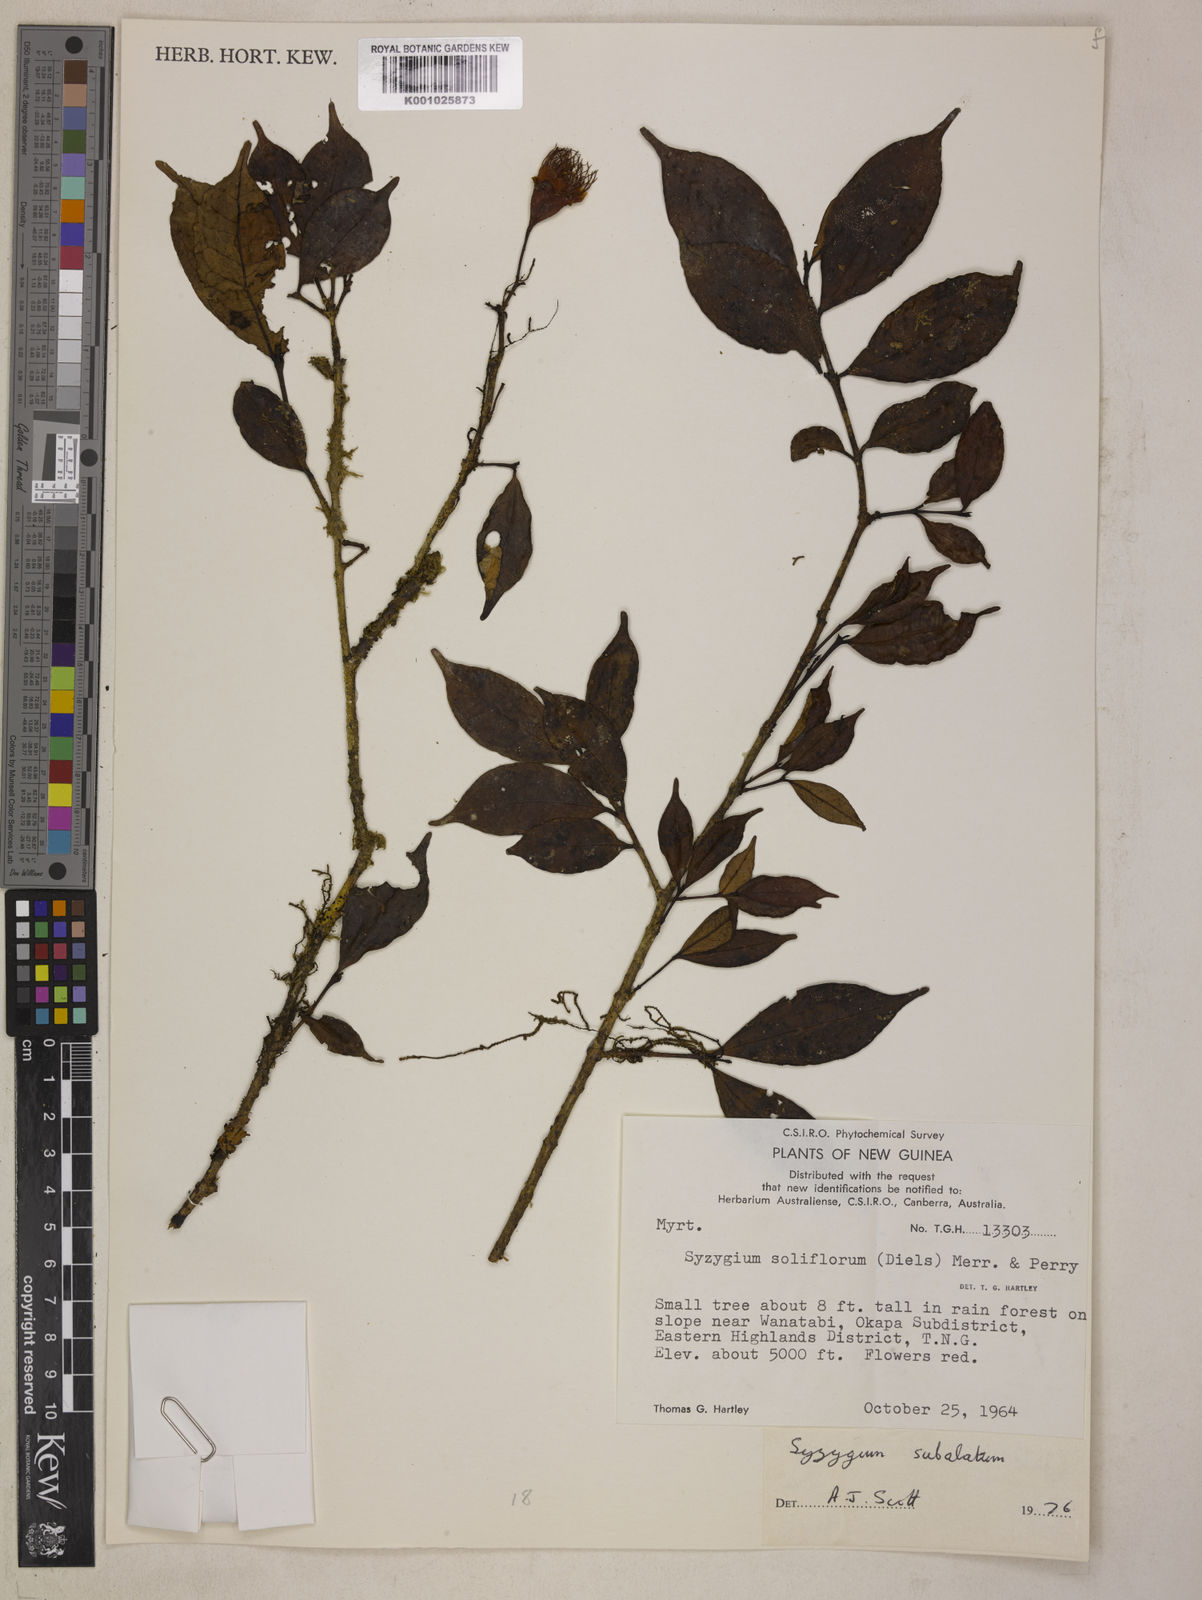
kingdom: Plantae
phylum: Tracheophyta
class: Magnoliopsida
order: Myrtales
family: Myrtaceae
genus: Syzygium
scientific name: Syzygium subalatum
